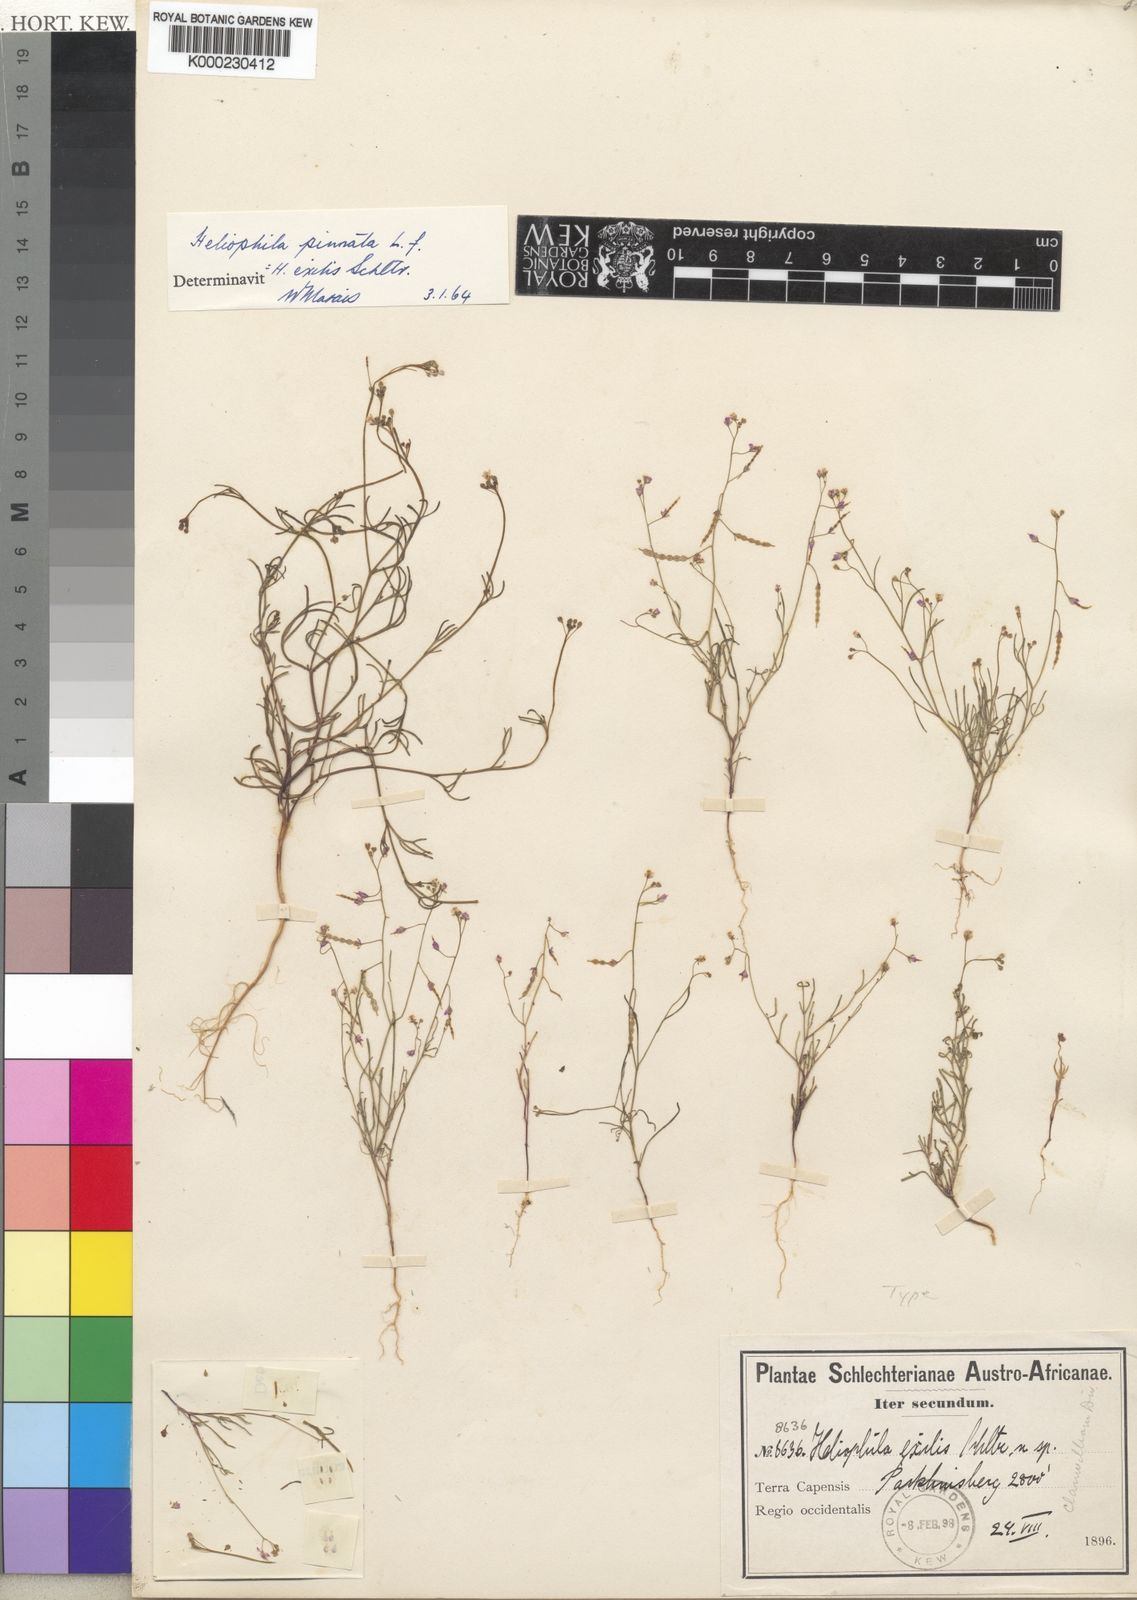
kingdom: Plantae
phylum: Tracheophyta
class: Magnoliopsida
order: Brassicales
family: Brassicaceae
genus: Heliophila
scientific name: Heliophila pinnata
